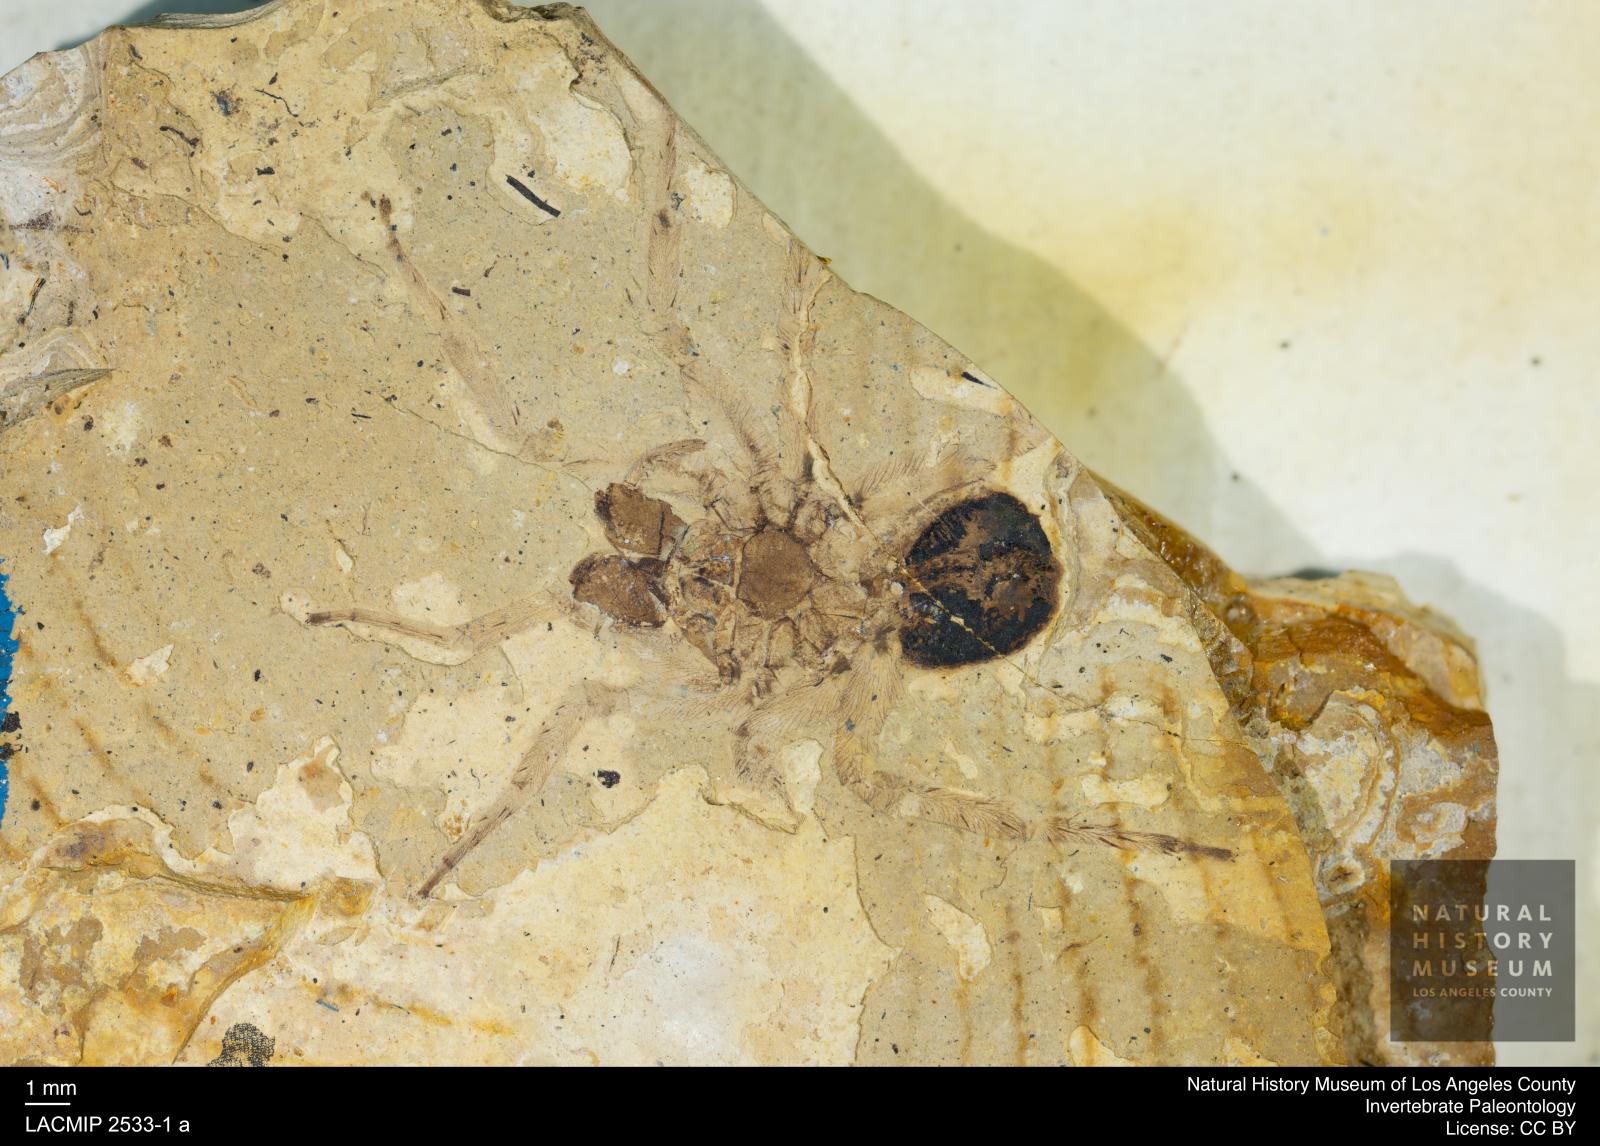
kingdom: Animalia
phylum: Arthropoda
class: Arachnida
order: Araneae
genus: Elvina
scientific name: Elvina Argyroneta antiqua
